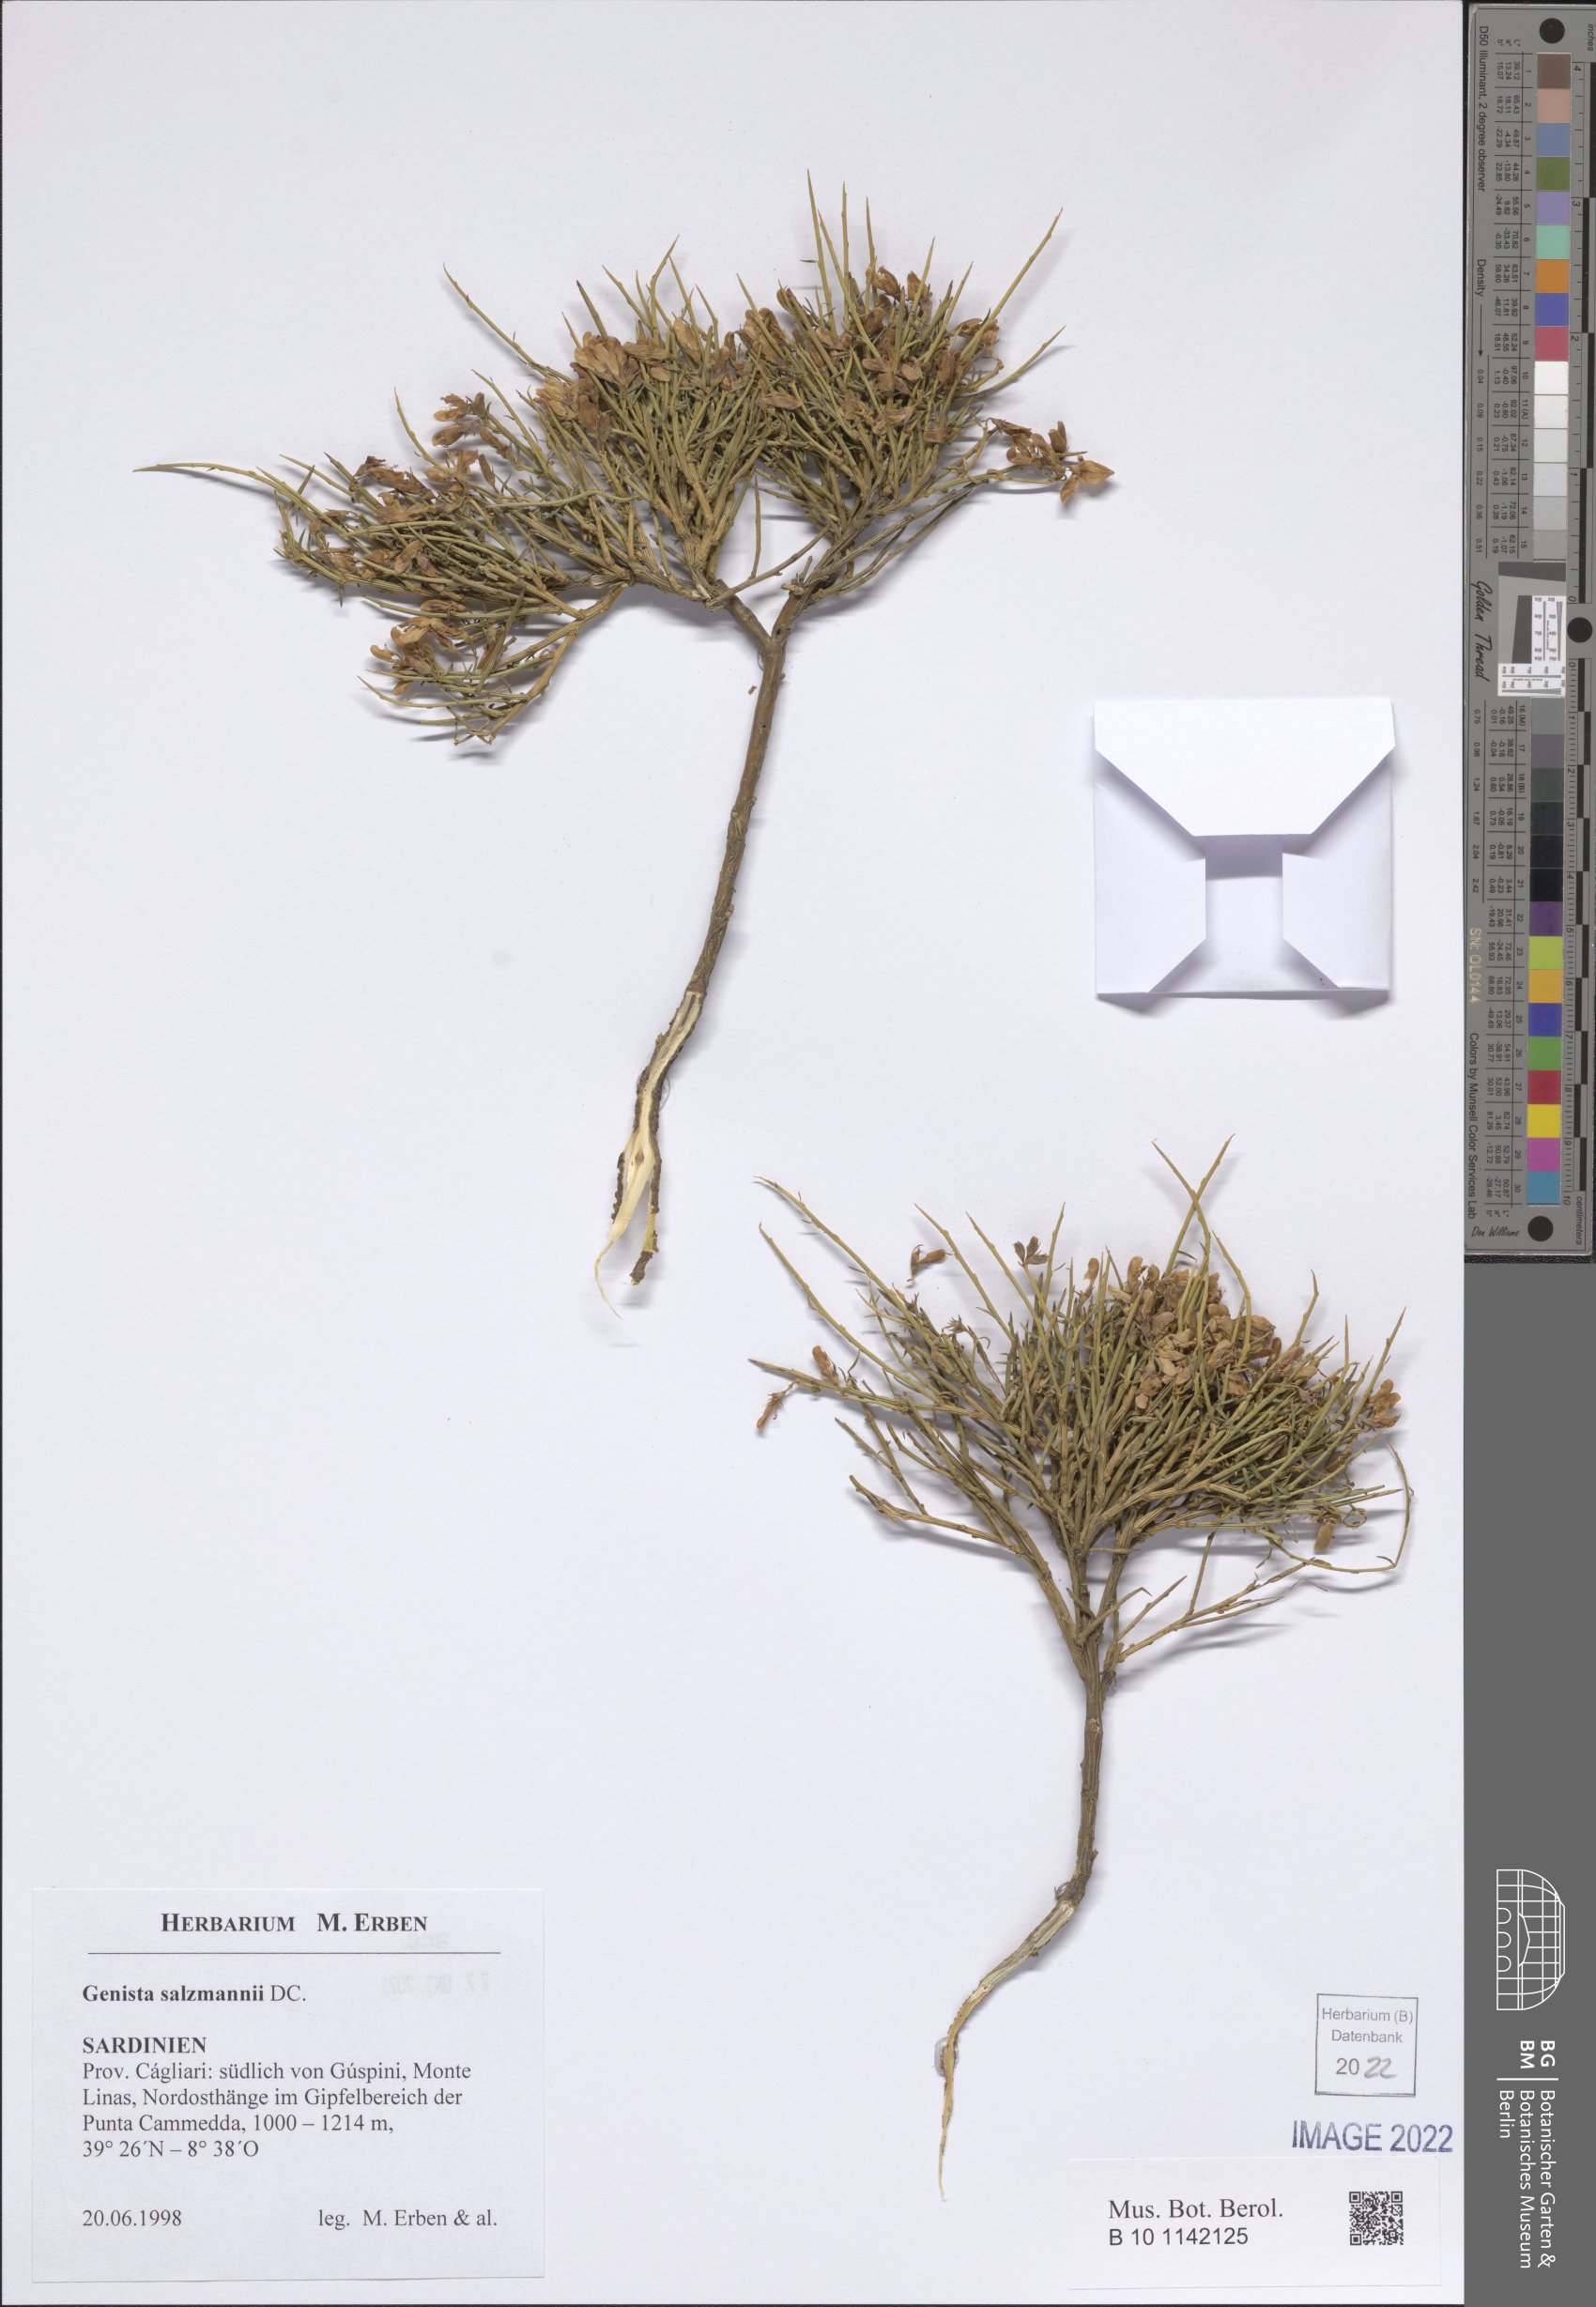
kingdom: Plantae
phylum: Tracheophyta
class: Magnoliopsida
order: Fabales
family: Fabaceae
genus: Genista
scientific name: Genista salzmannii
